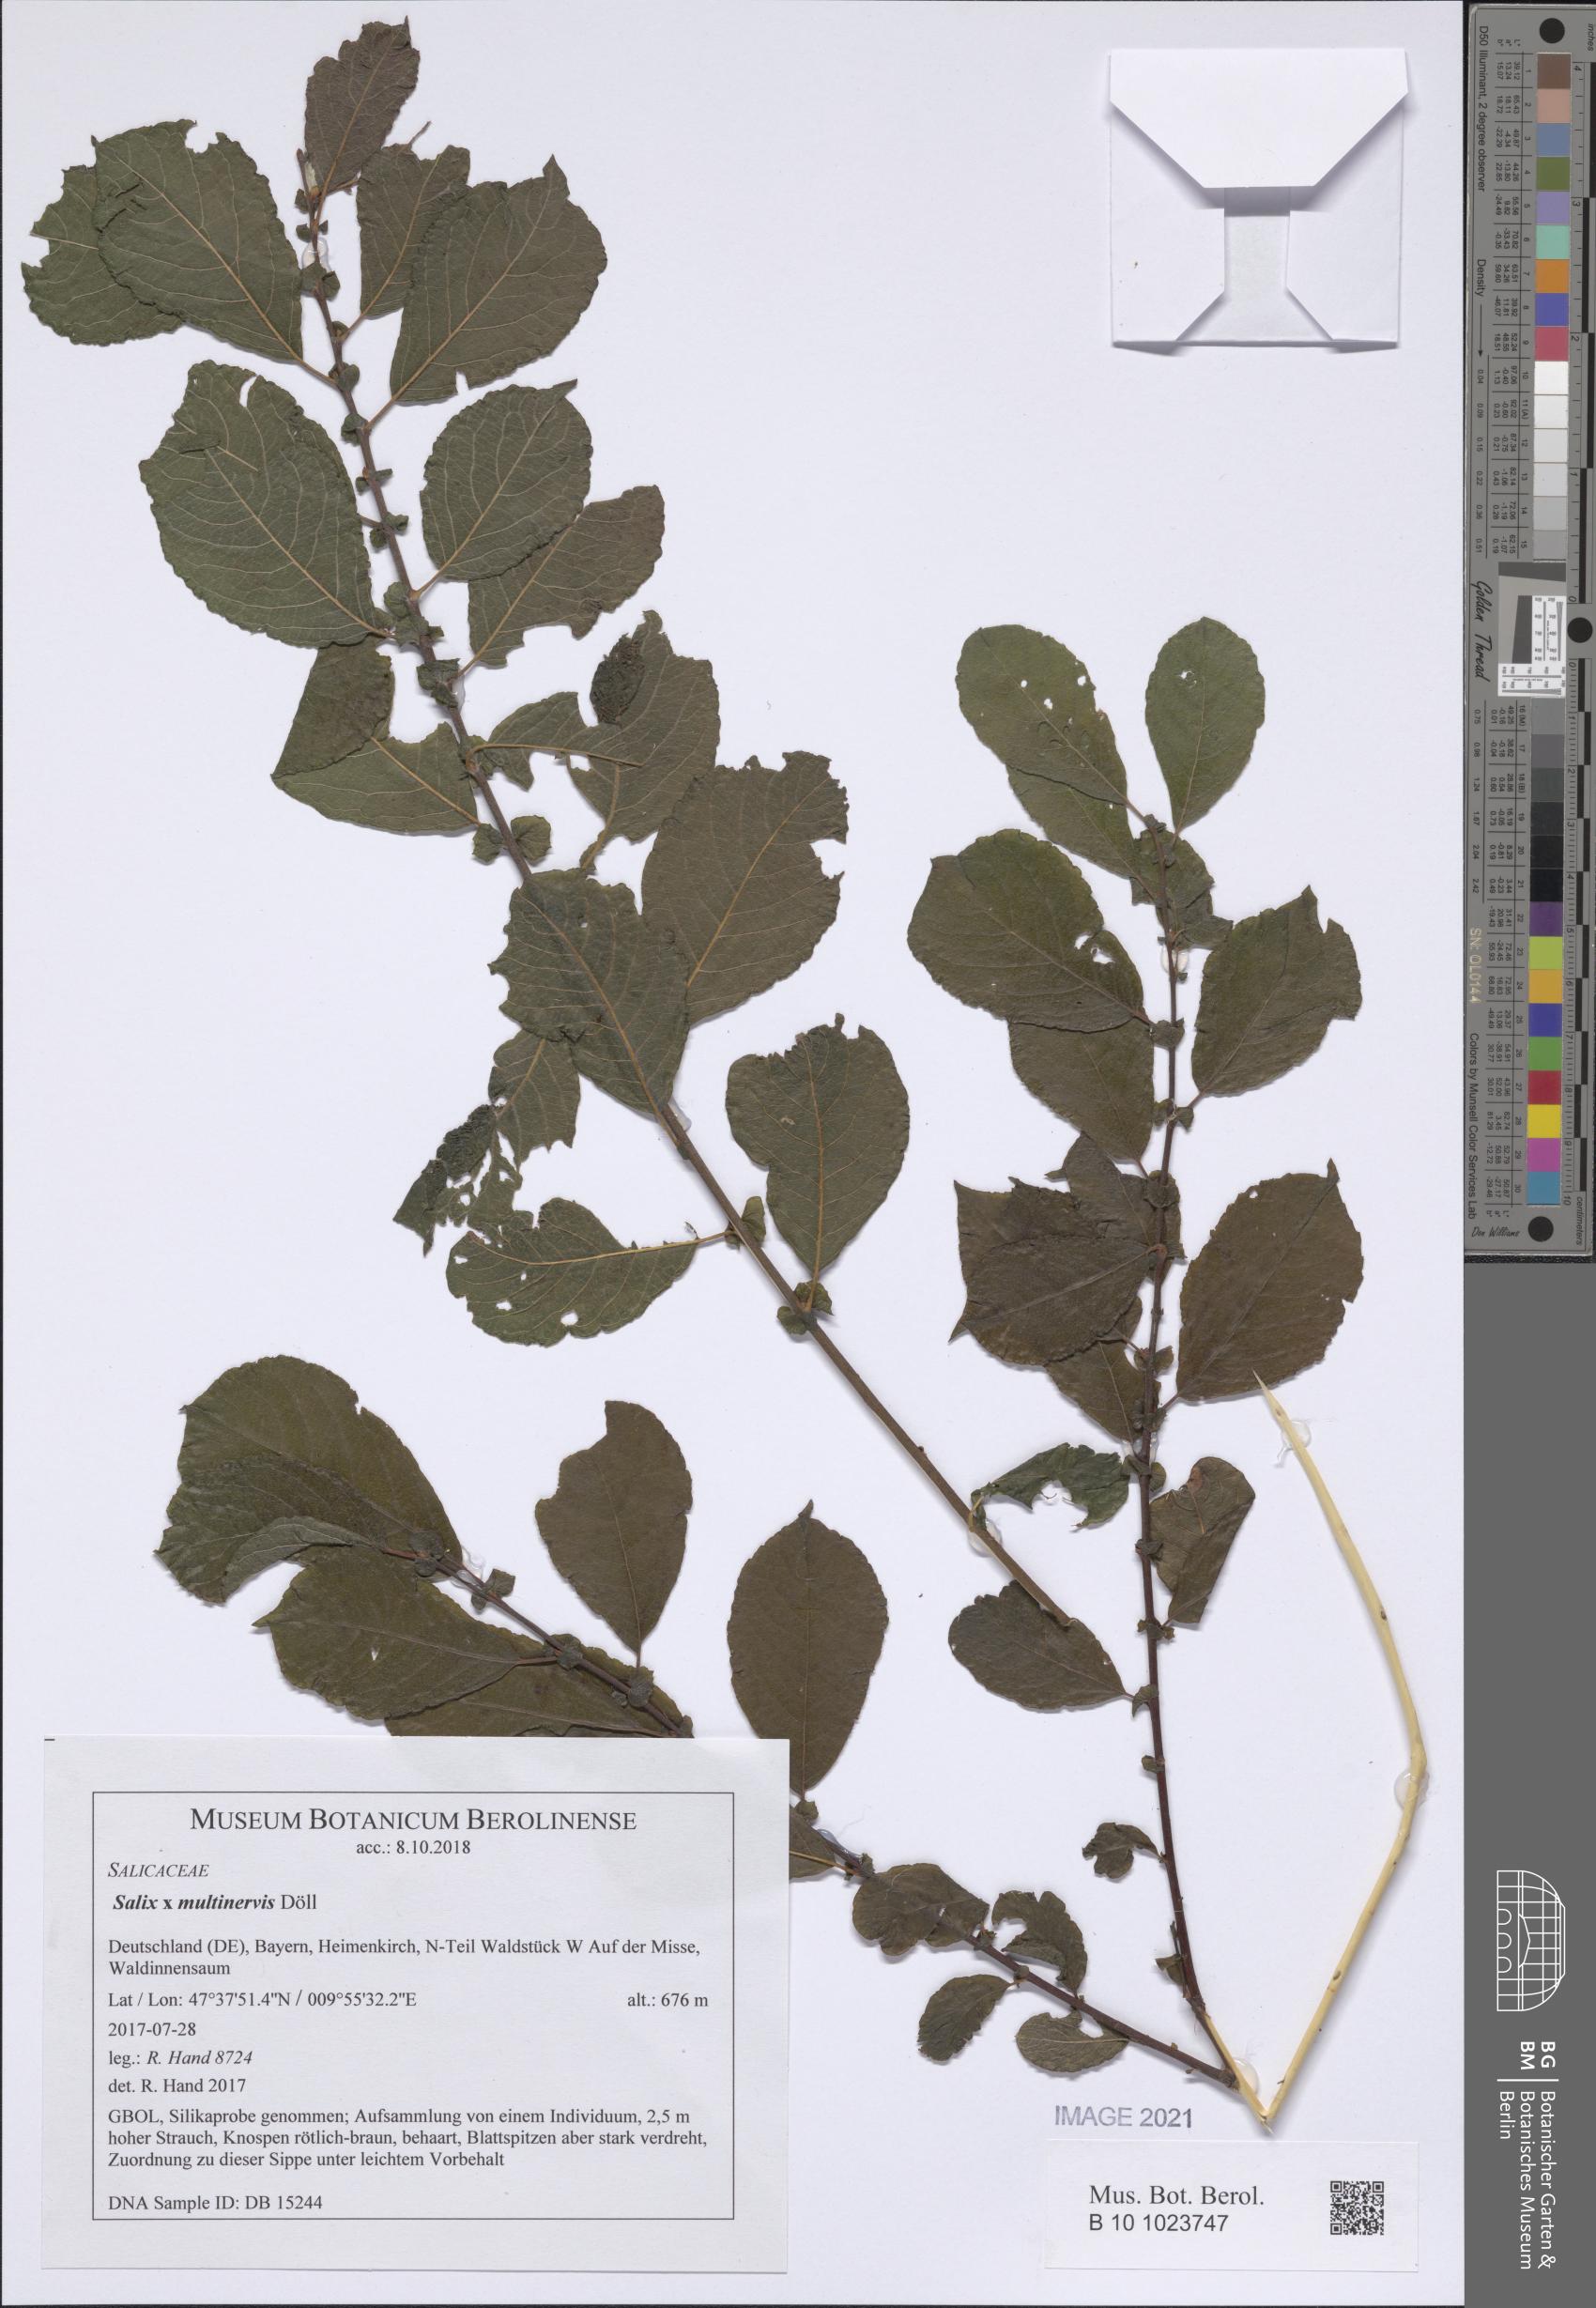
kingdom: Plantae
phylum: Tracheophyta
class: Magnoliopsida
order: Malpighiales
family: Salicaceae
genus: Salix
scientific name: Salix multinervis
